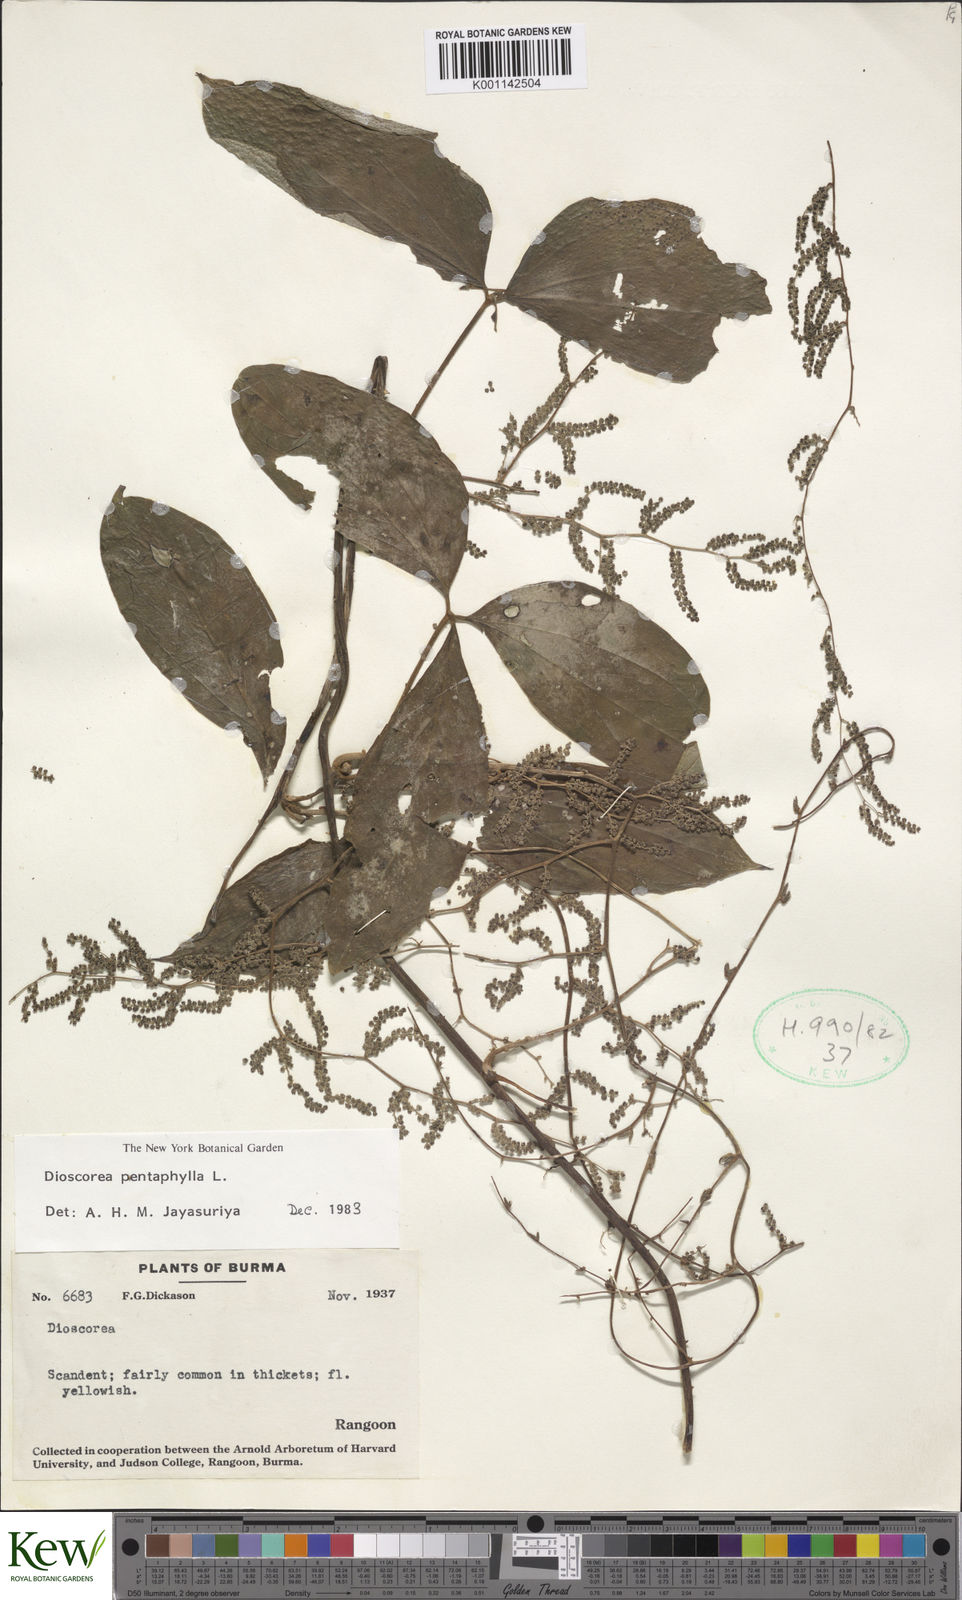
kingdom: Plantae
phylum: Tracheophyta
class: Liliopsida
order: Dioscoreales
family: Dioscoreaceae
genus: Dioscorea
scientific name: Dioscorea pentaphylla
